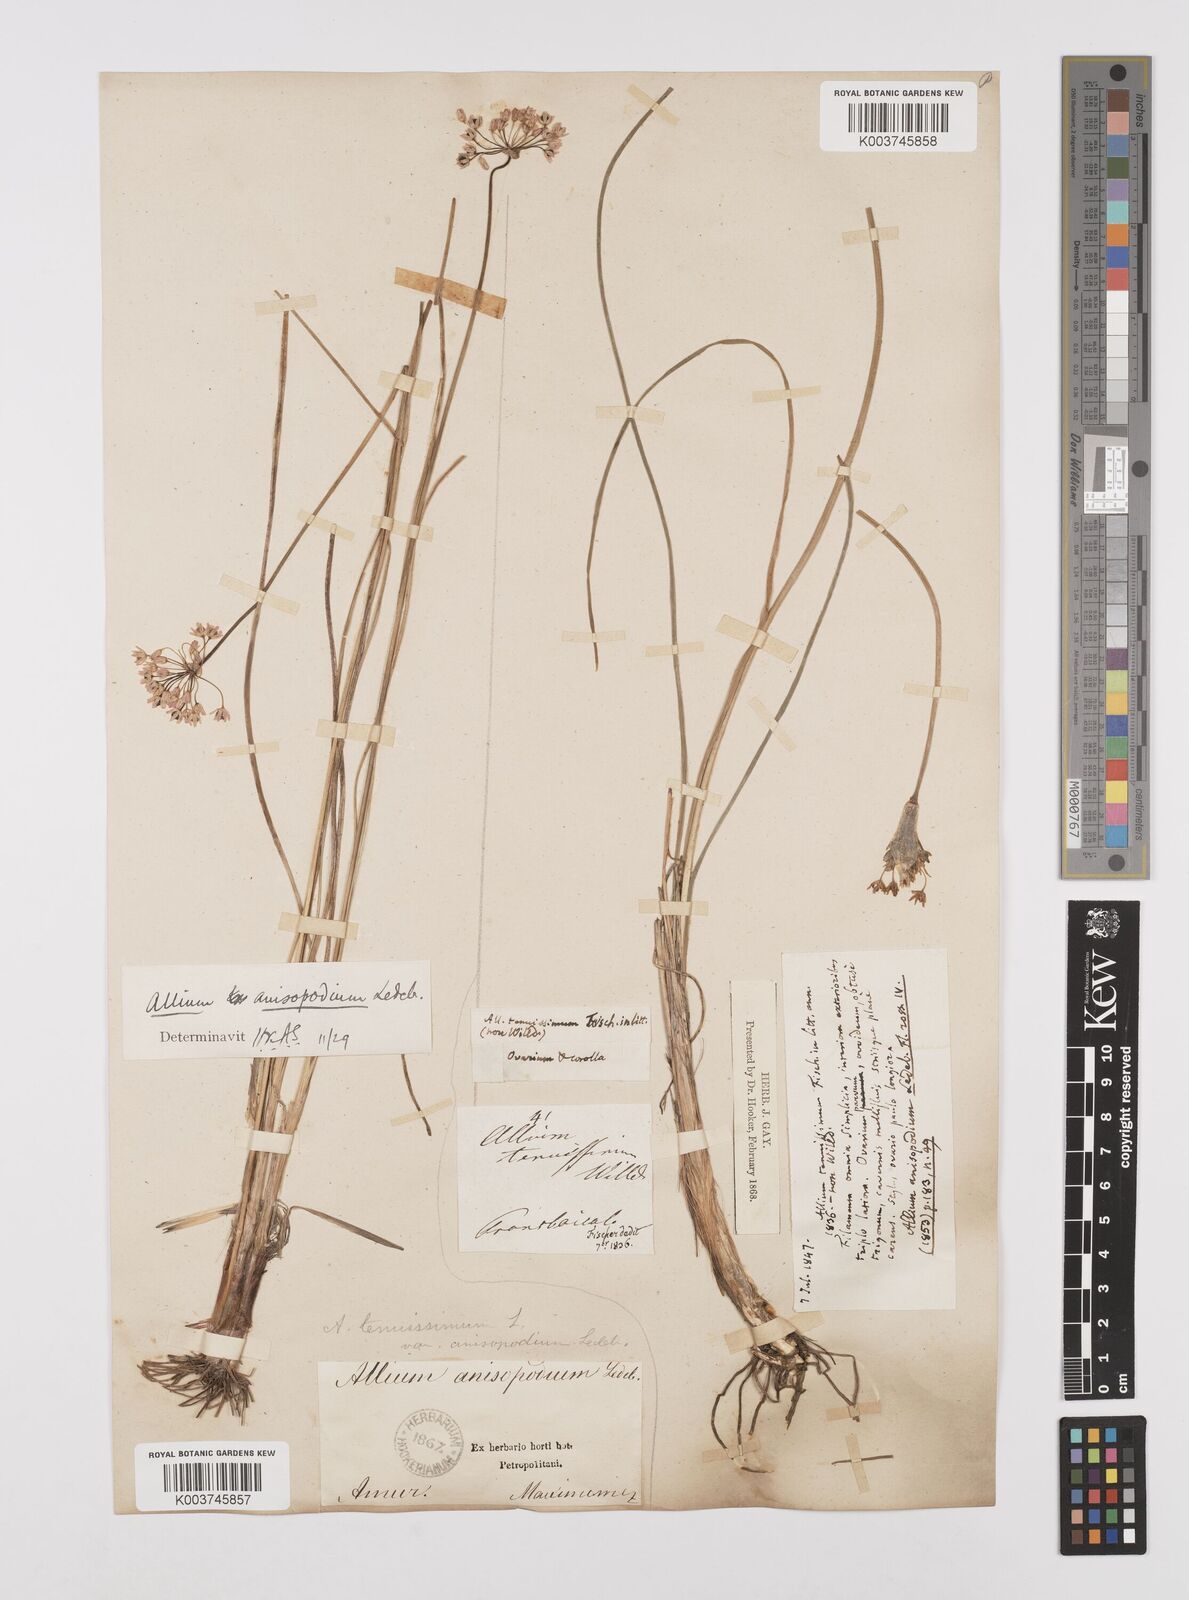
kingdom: Plantae
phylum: Tracheophyta
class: Liliopsida
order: Asparagales
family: Amaryllidaceae
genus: Allium
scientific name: Allium anisopodium
